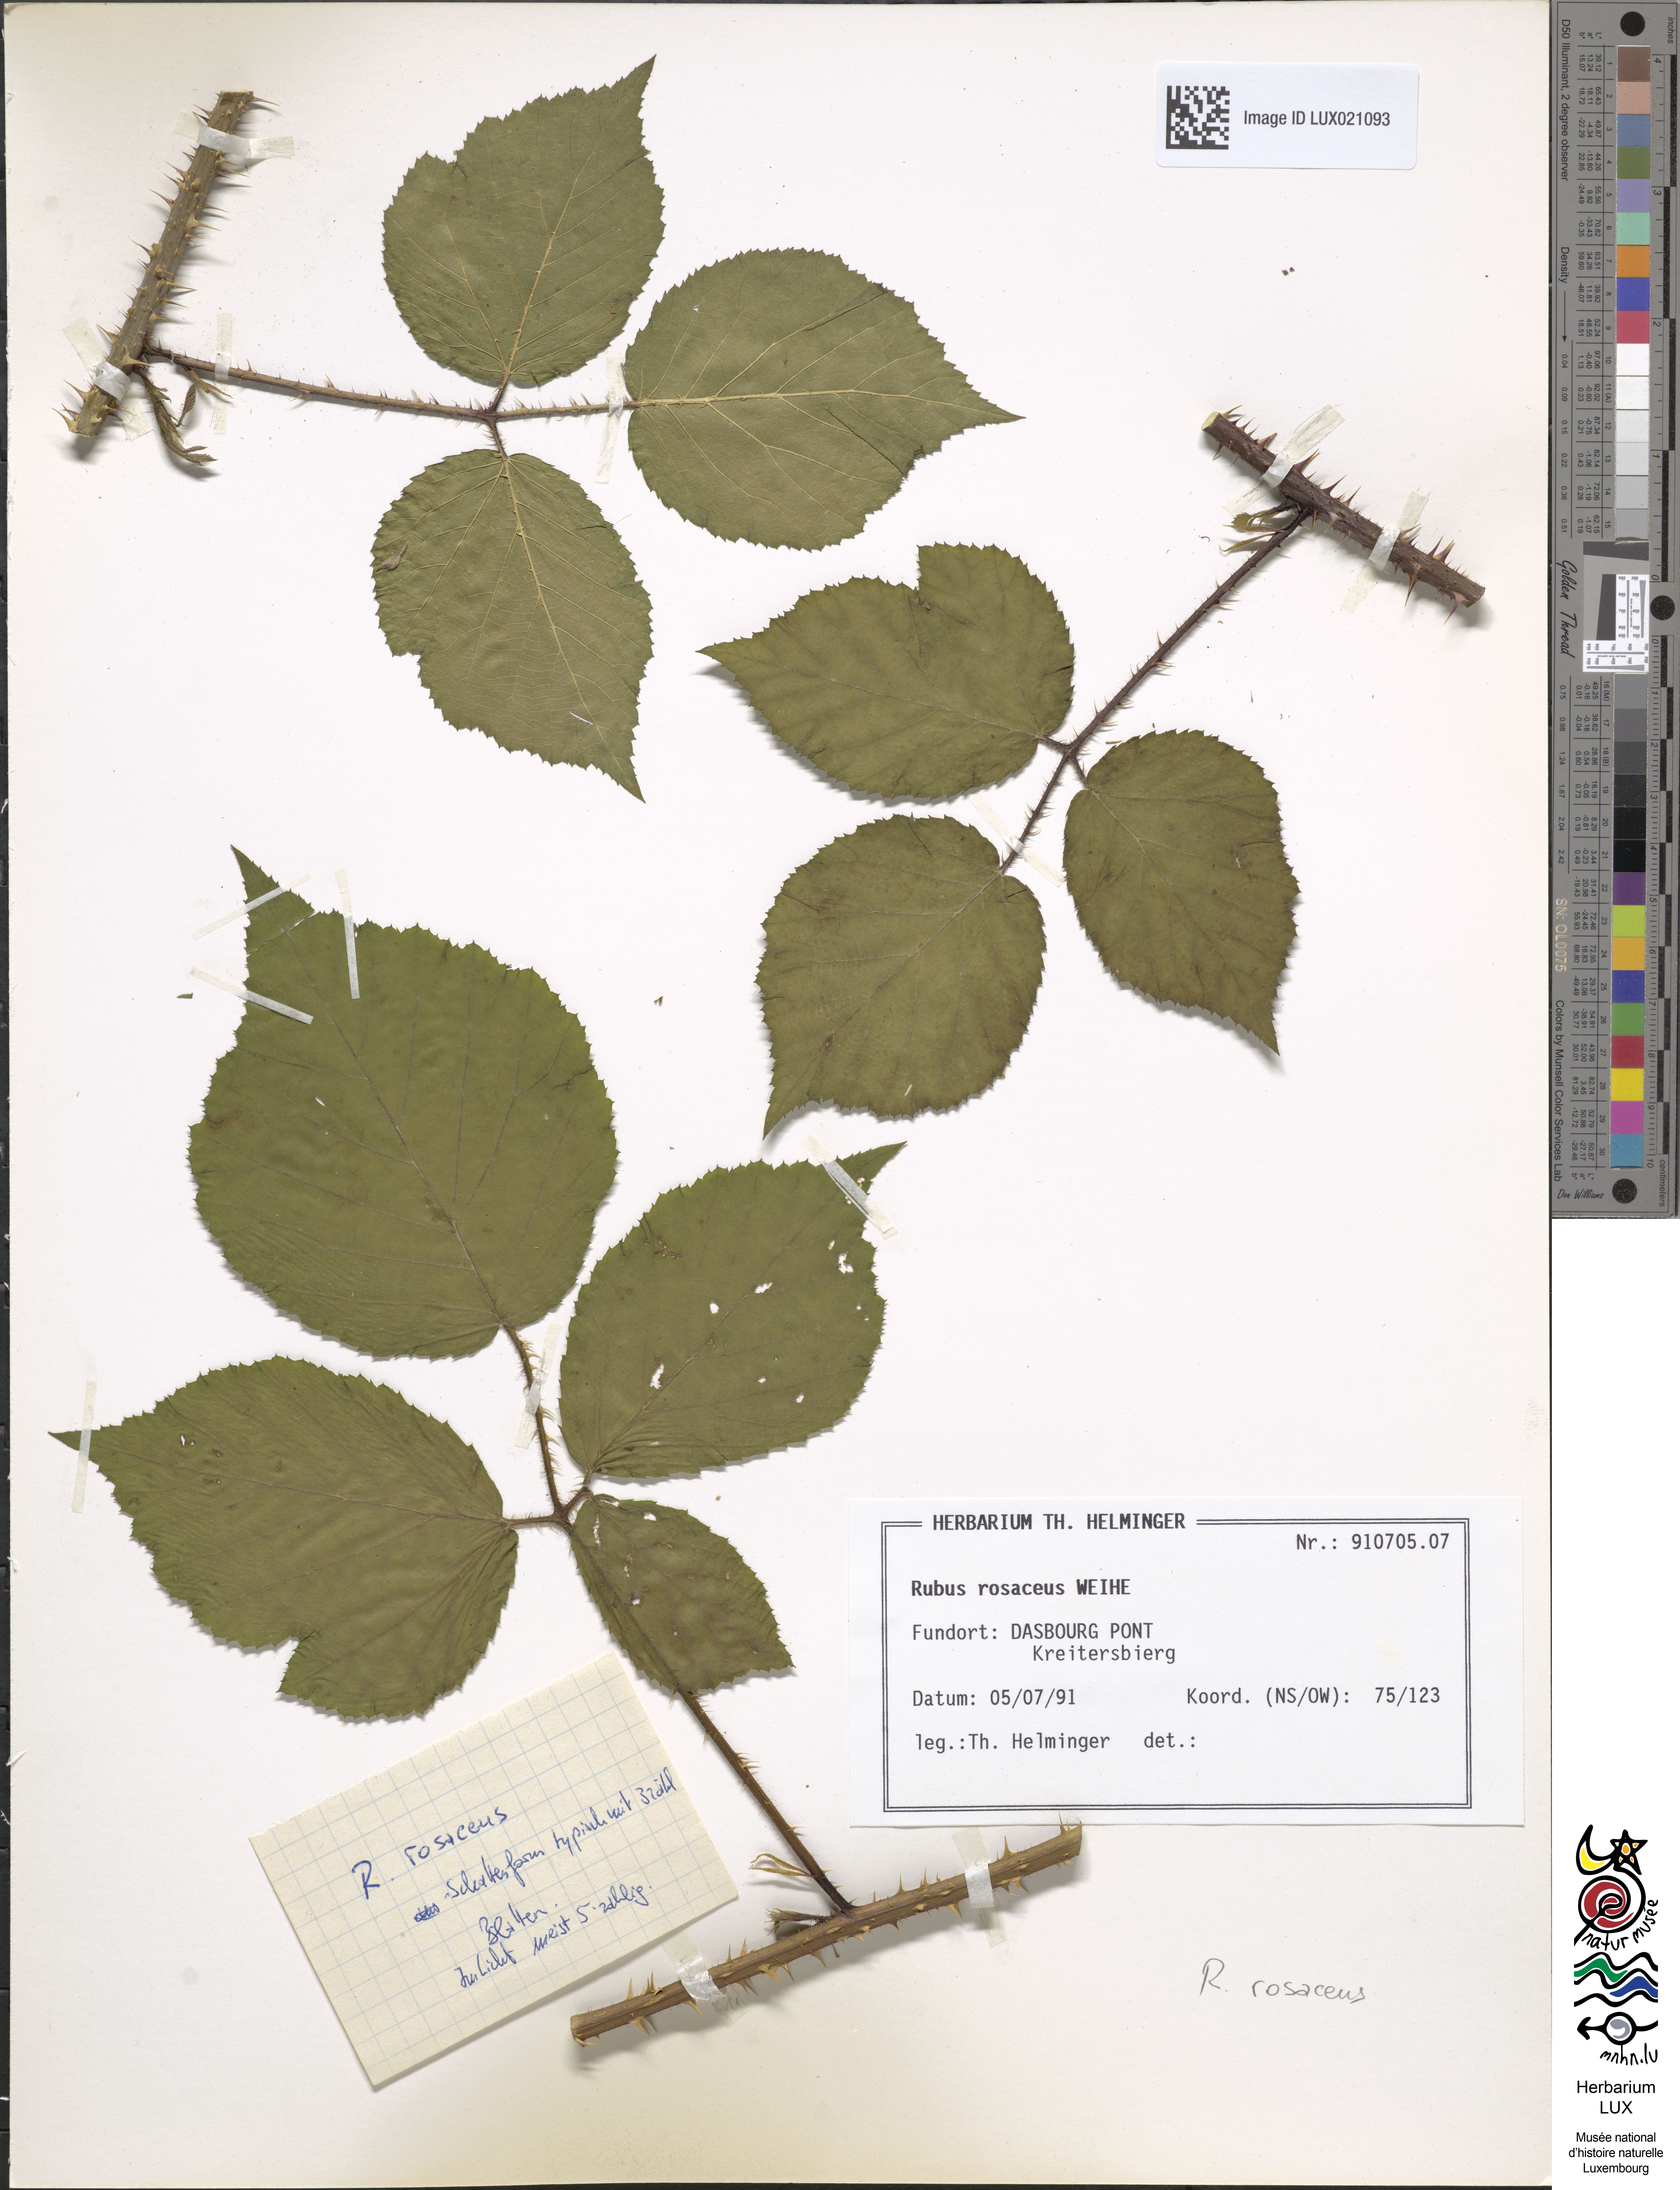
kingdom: Plantae
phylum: Tracheophyta
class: Magnoliopsida
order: Rosales
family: Rosaceae
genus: Rubus
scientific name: Rubus rosaceus
